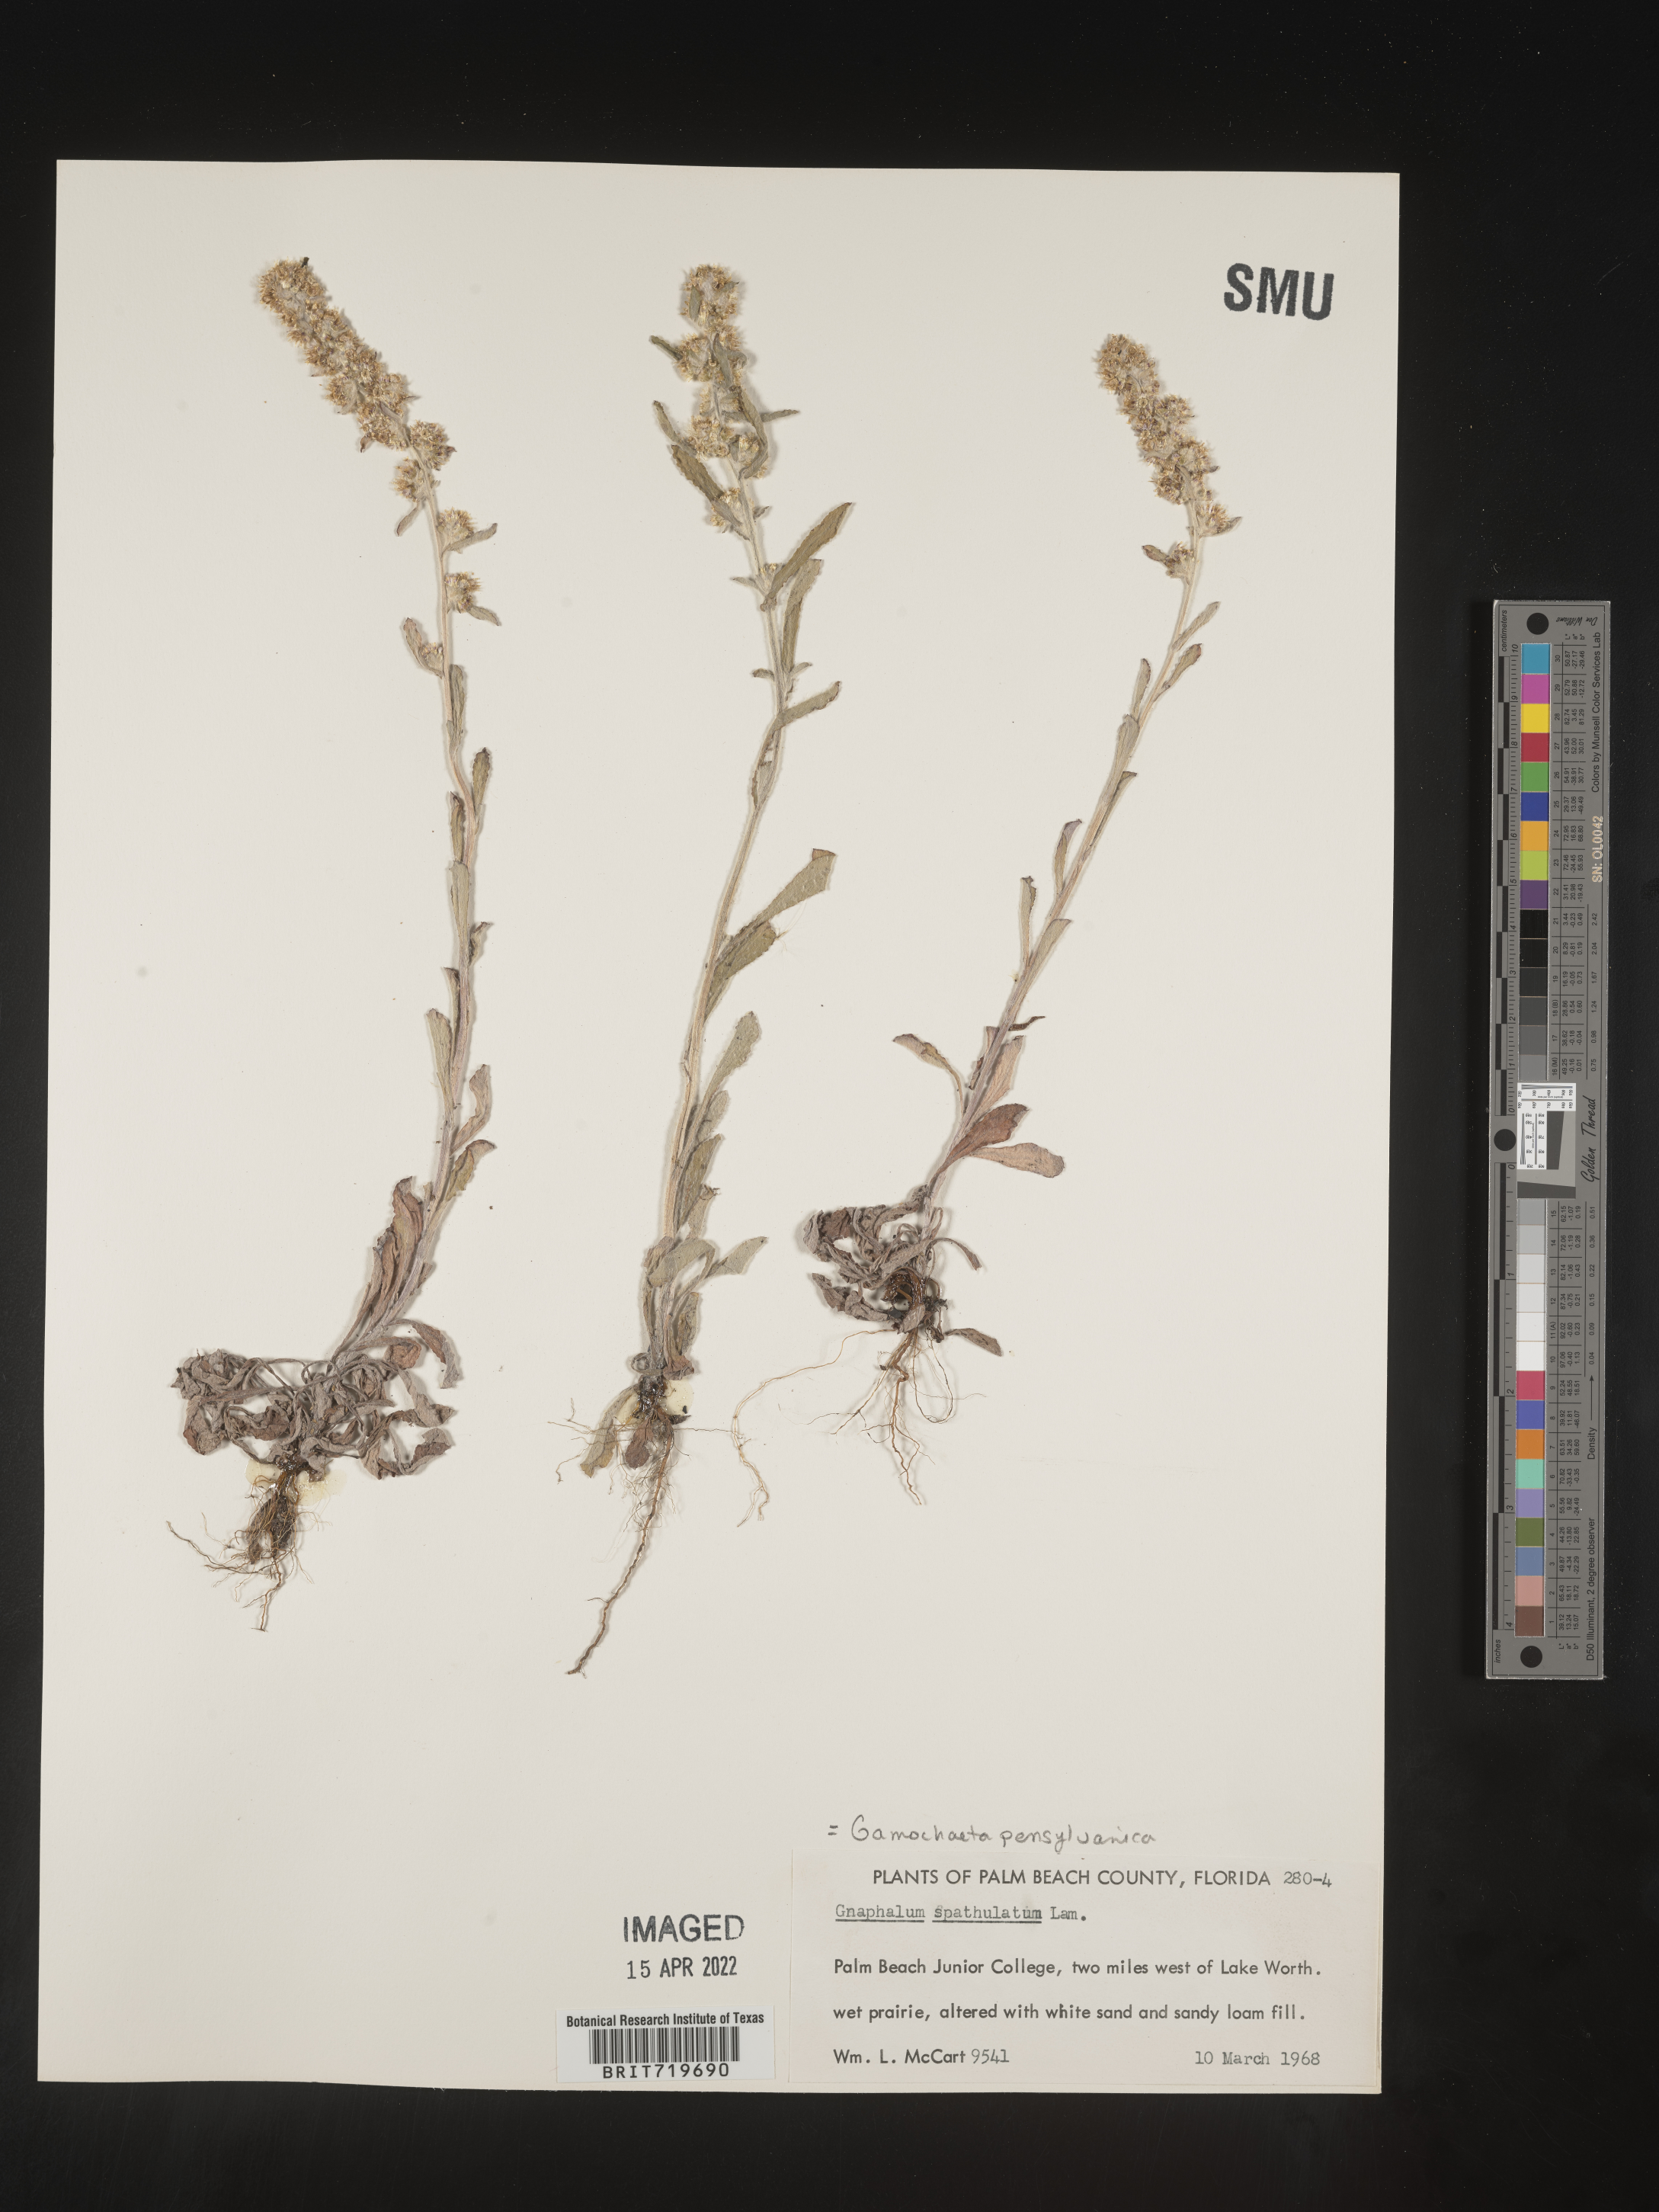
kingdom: Plantae
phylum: Tracheophyta
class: Magnoliopsida
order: Asterales
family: Asteraceae
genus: Gamochaeta
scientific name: Gamochaeta pensylvanica
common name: Pennsylvania everlasting
